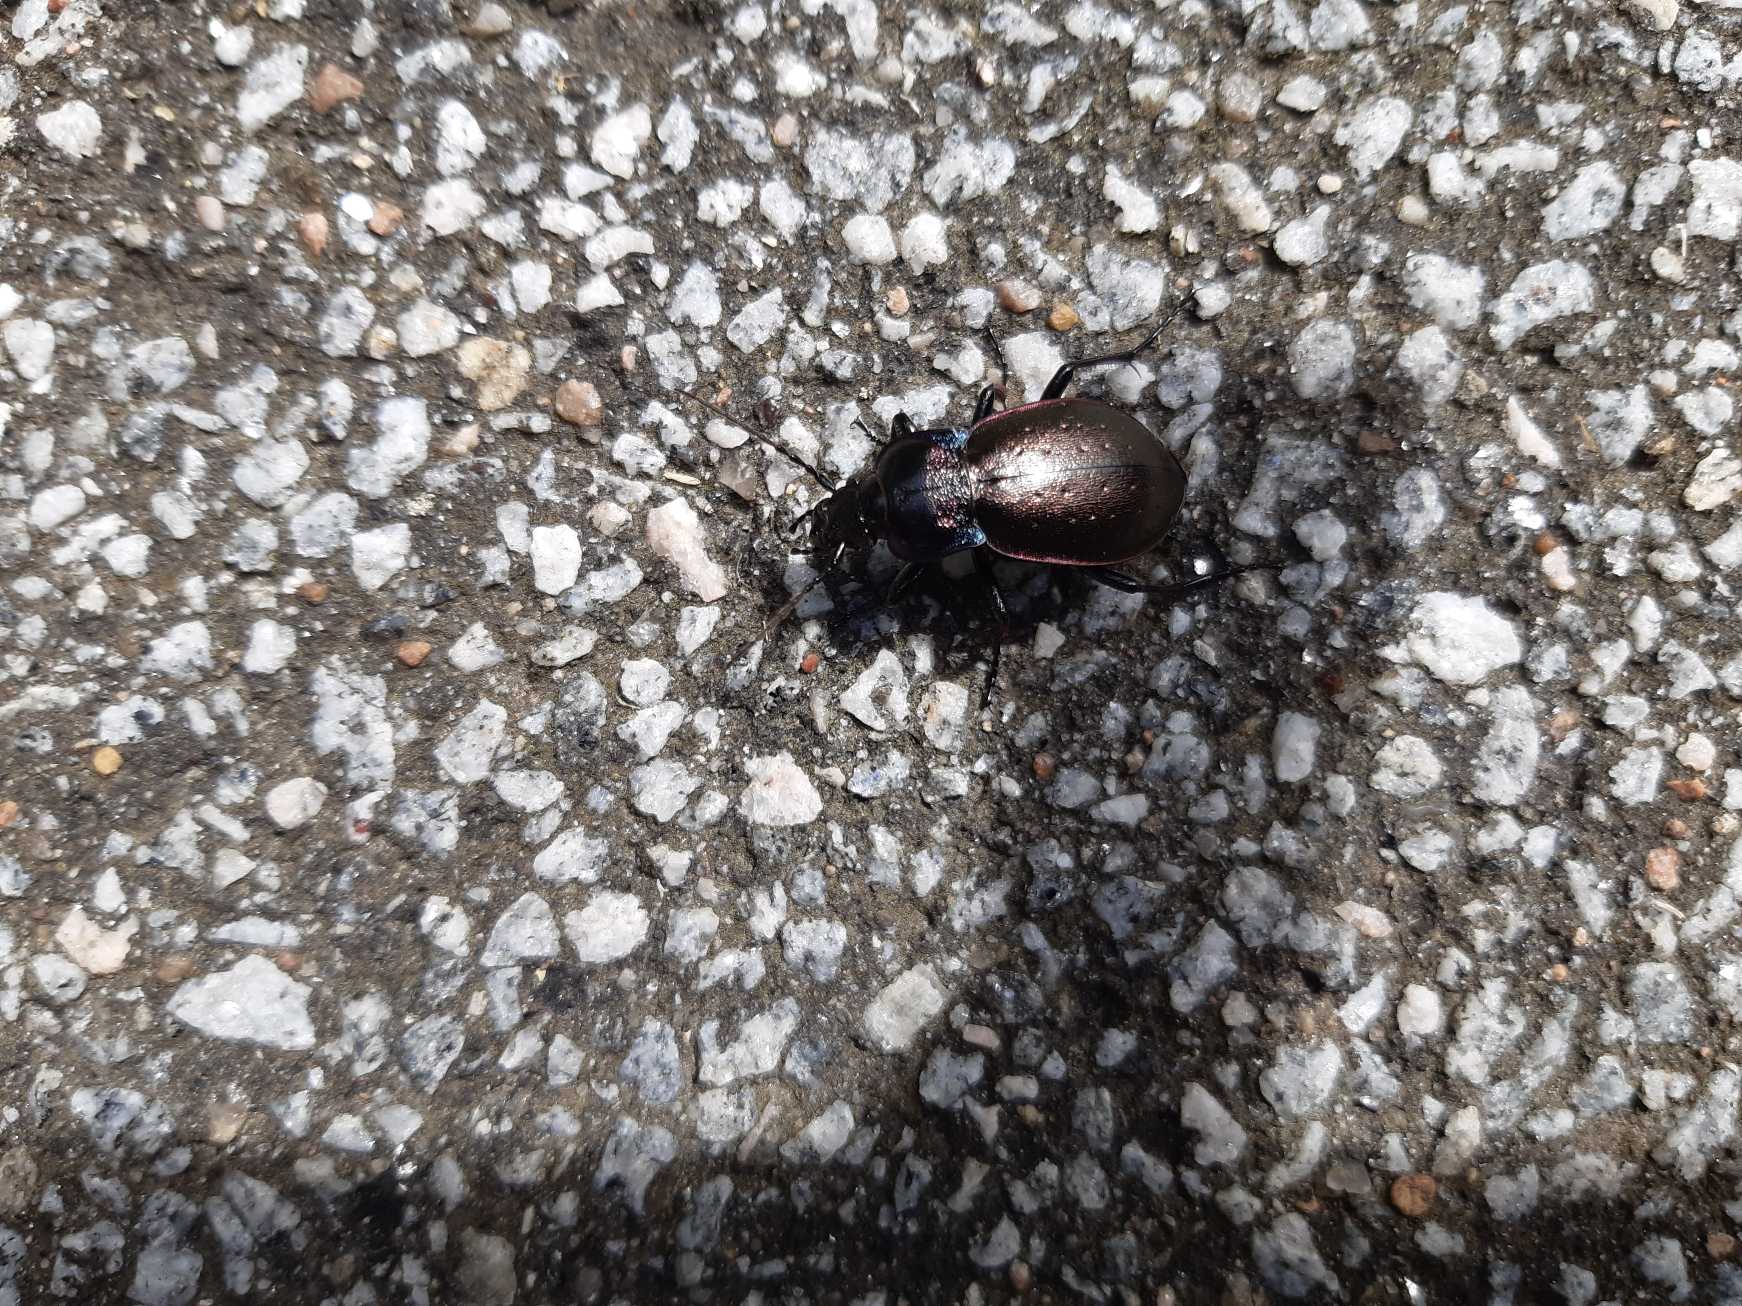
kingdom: Animalia
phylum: Arthropoda
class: Insecta
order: Coleoptera
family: Carabidae
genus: Carabus
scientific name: Carabus nemoralis
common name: Kratløber
